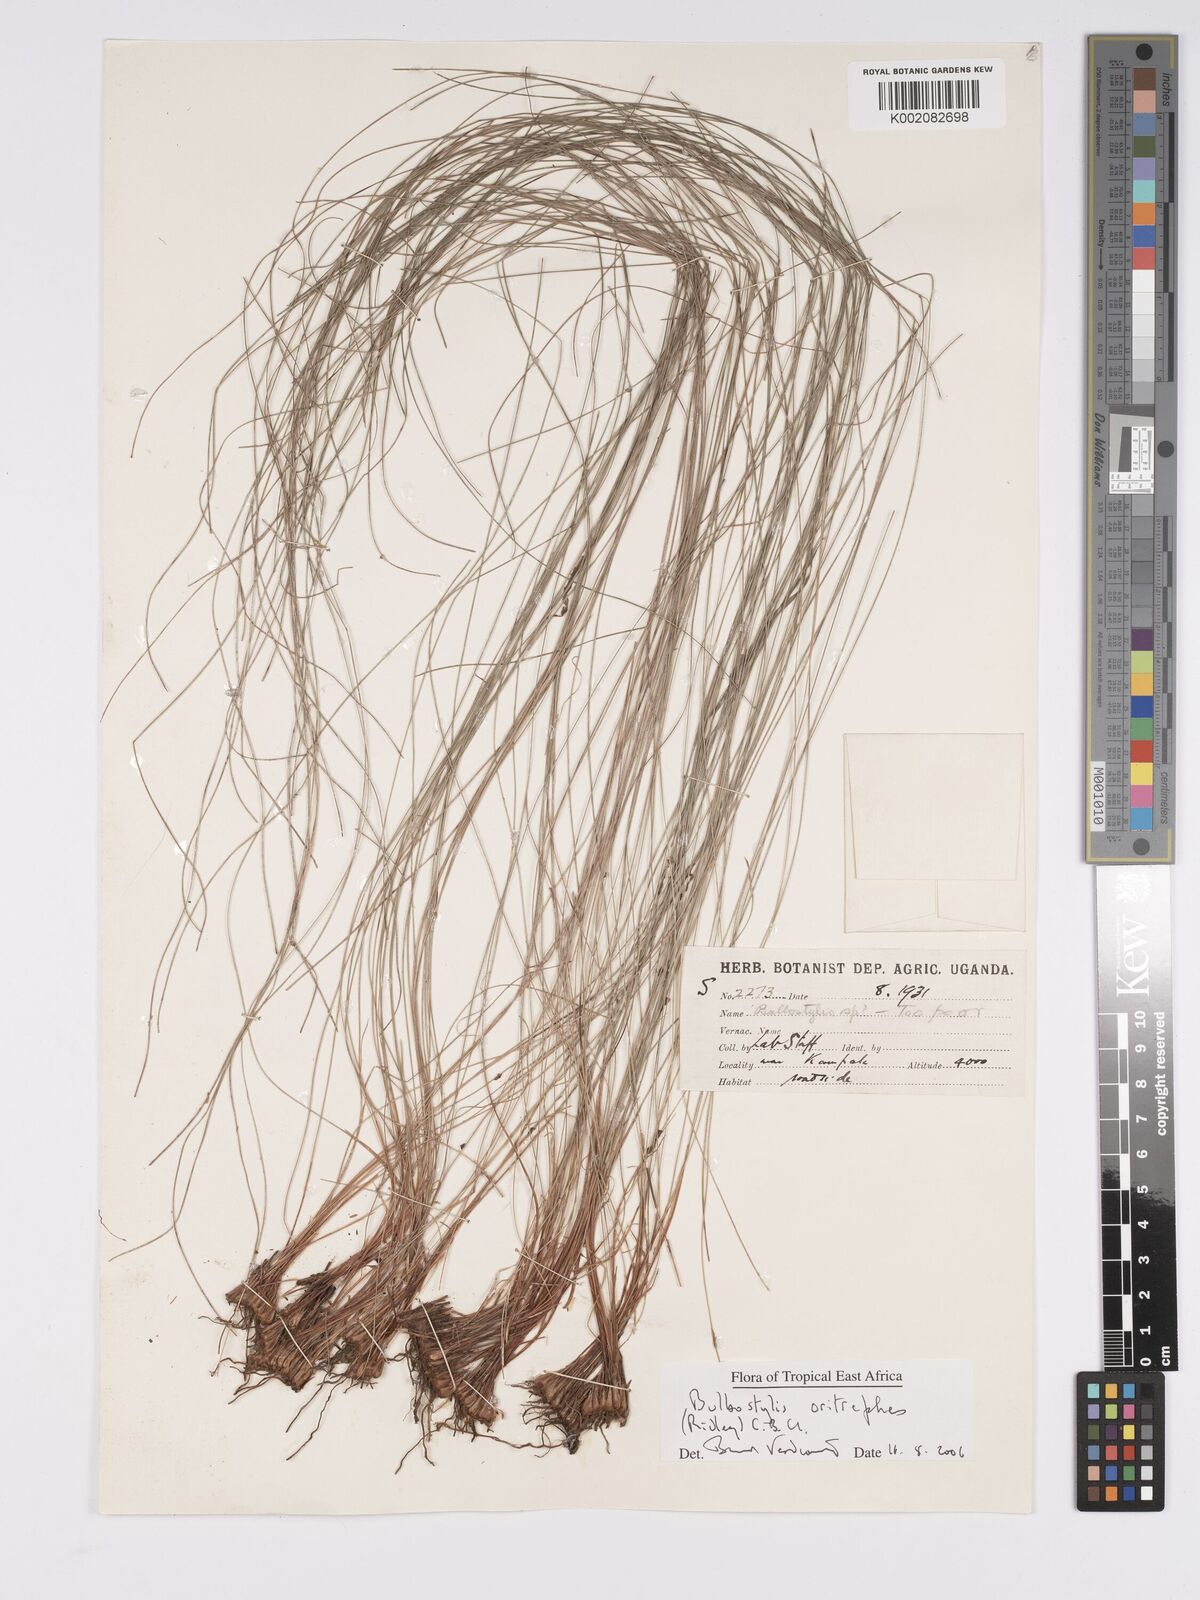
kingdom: Plantae
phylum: Tracheophyta
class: Liliopsida
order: Poales
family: Cyperaceae
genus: Bulbostylis
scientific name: Bulbostylis oritrephes
